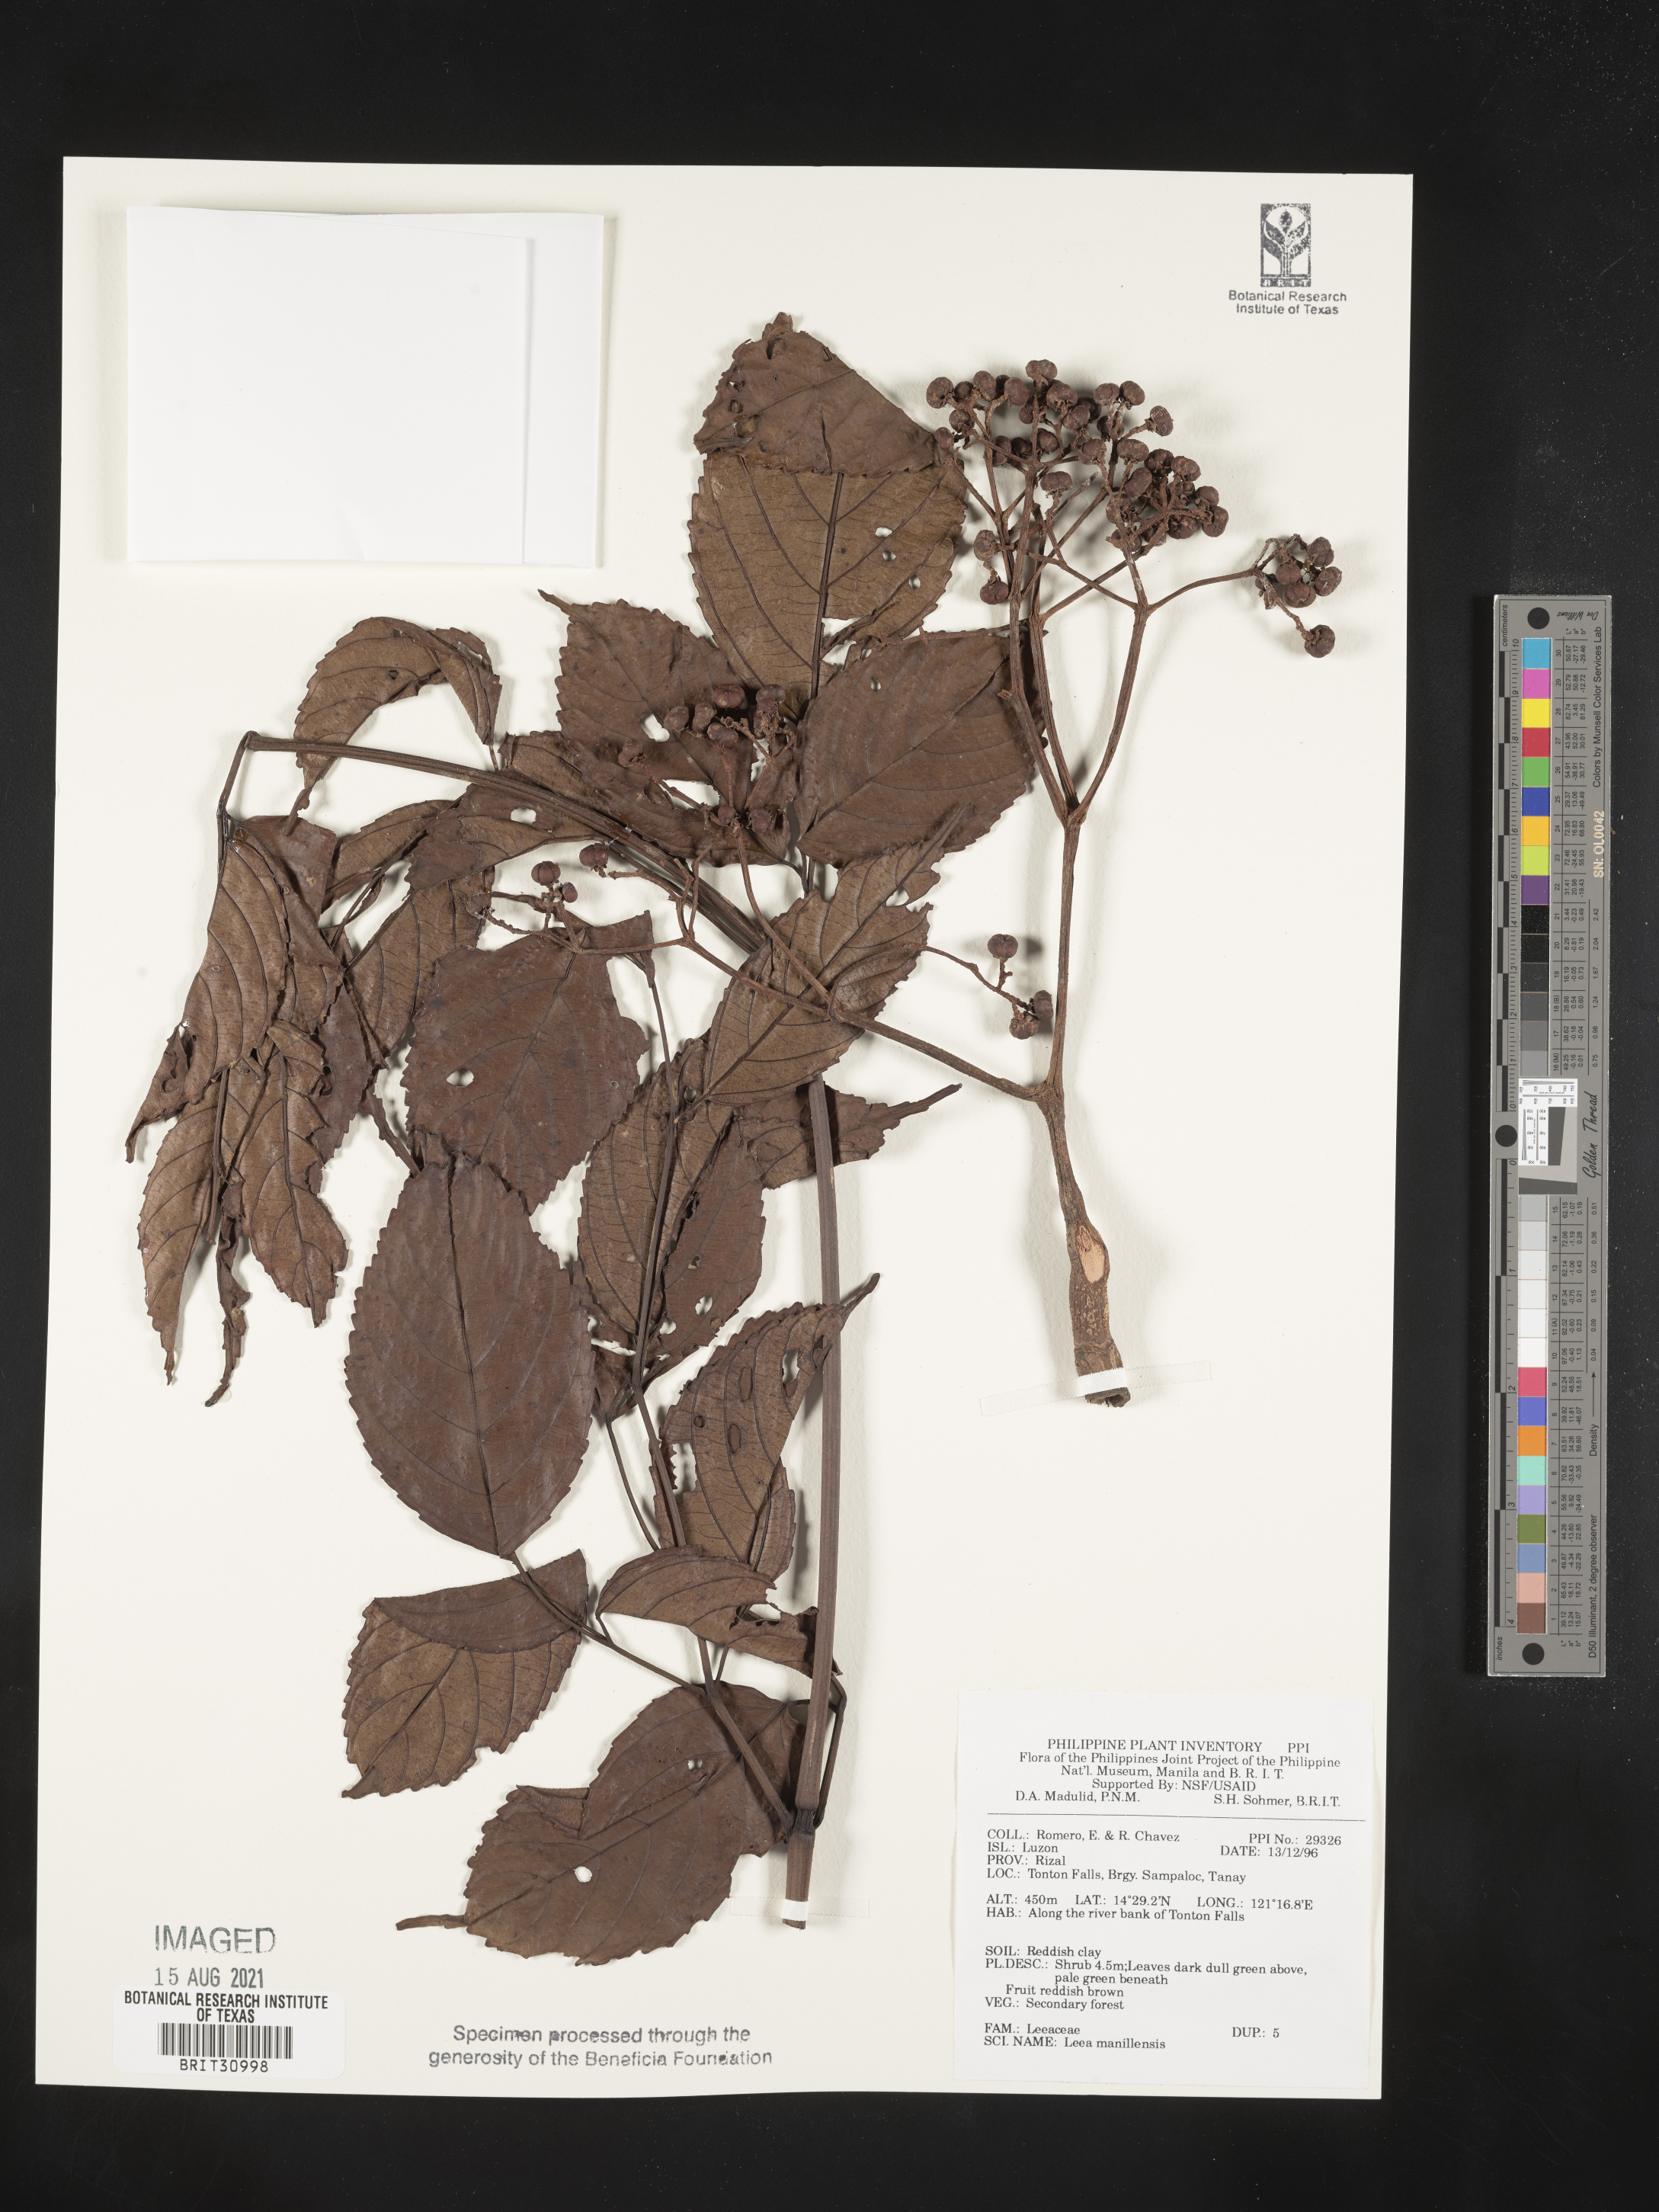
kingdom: Plantae
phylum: Tracheophyta
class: Magnoliopsida
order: Vitales
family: Vitaceae
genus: Leea
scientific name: Leea guineensis
